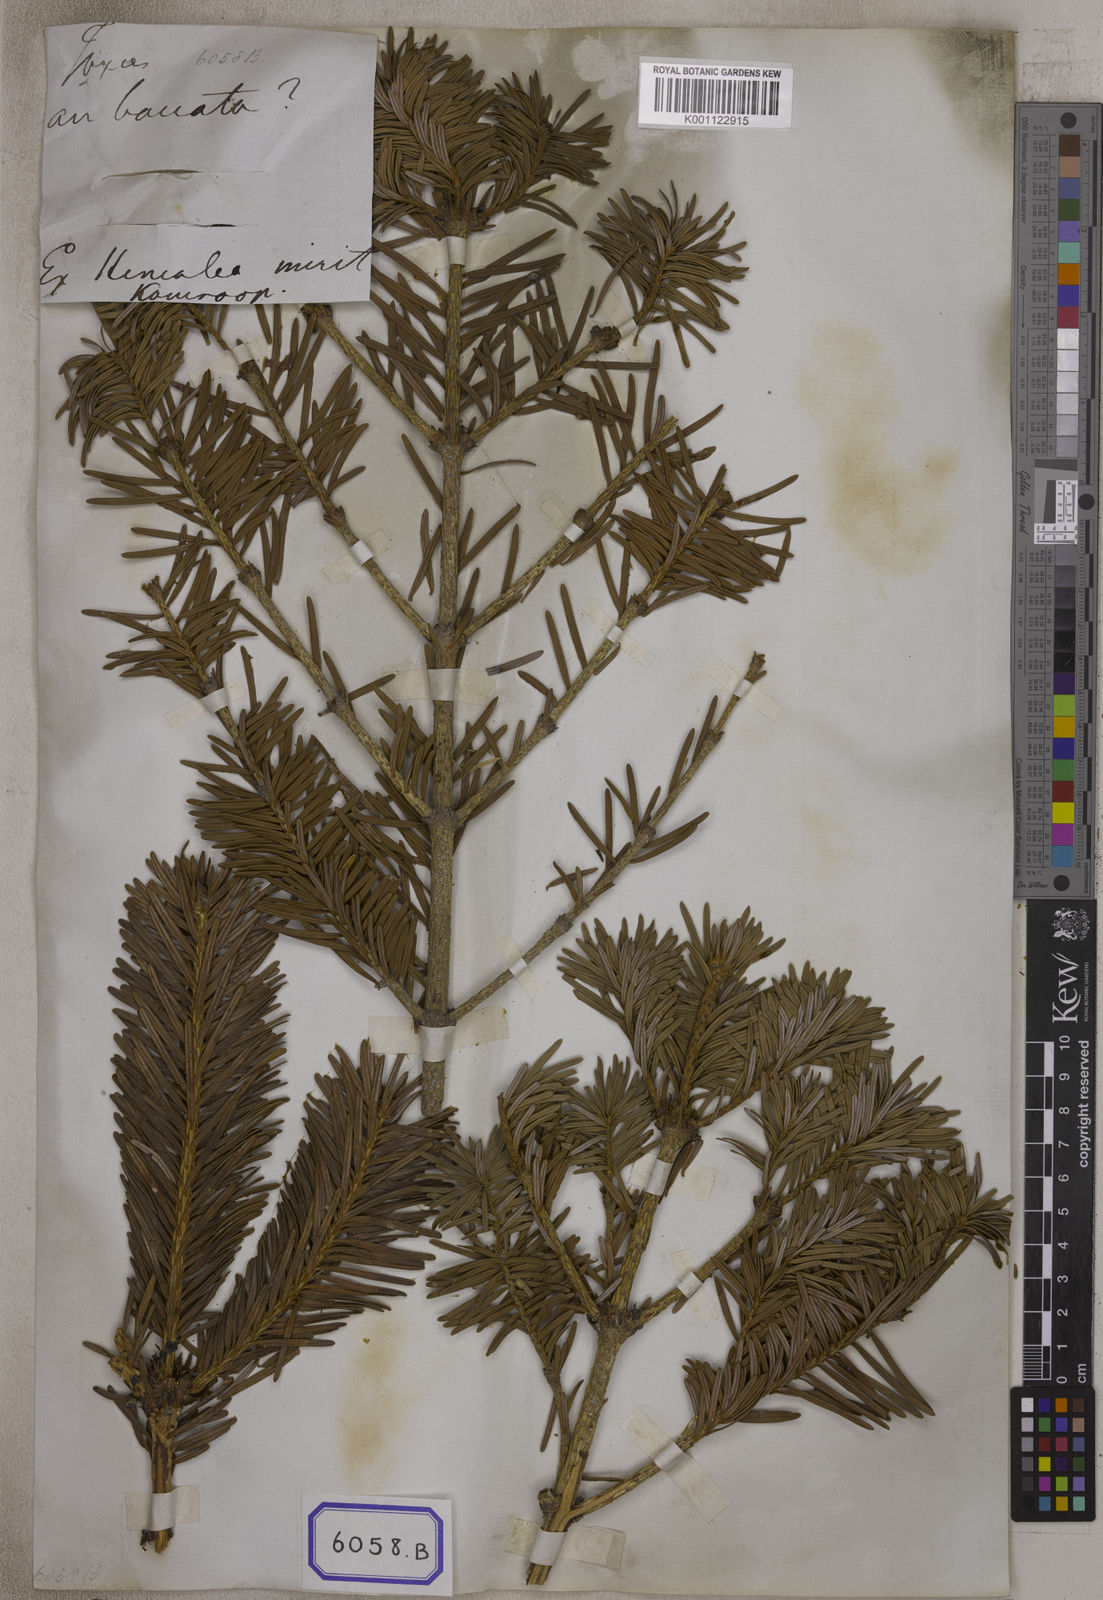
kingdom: Plantae
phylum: Tracheophyta
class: Pinopsida
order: Pinales
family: Pinaceae
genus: Pinus
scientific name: Pinus
